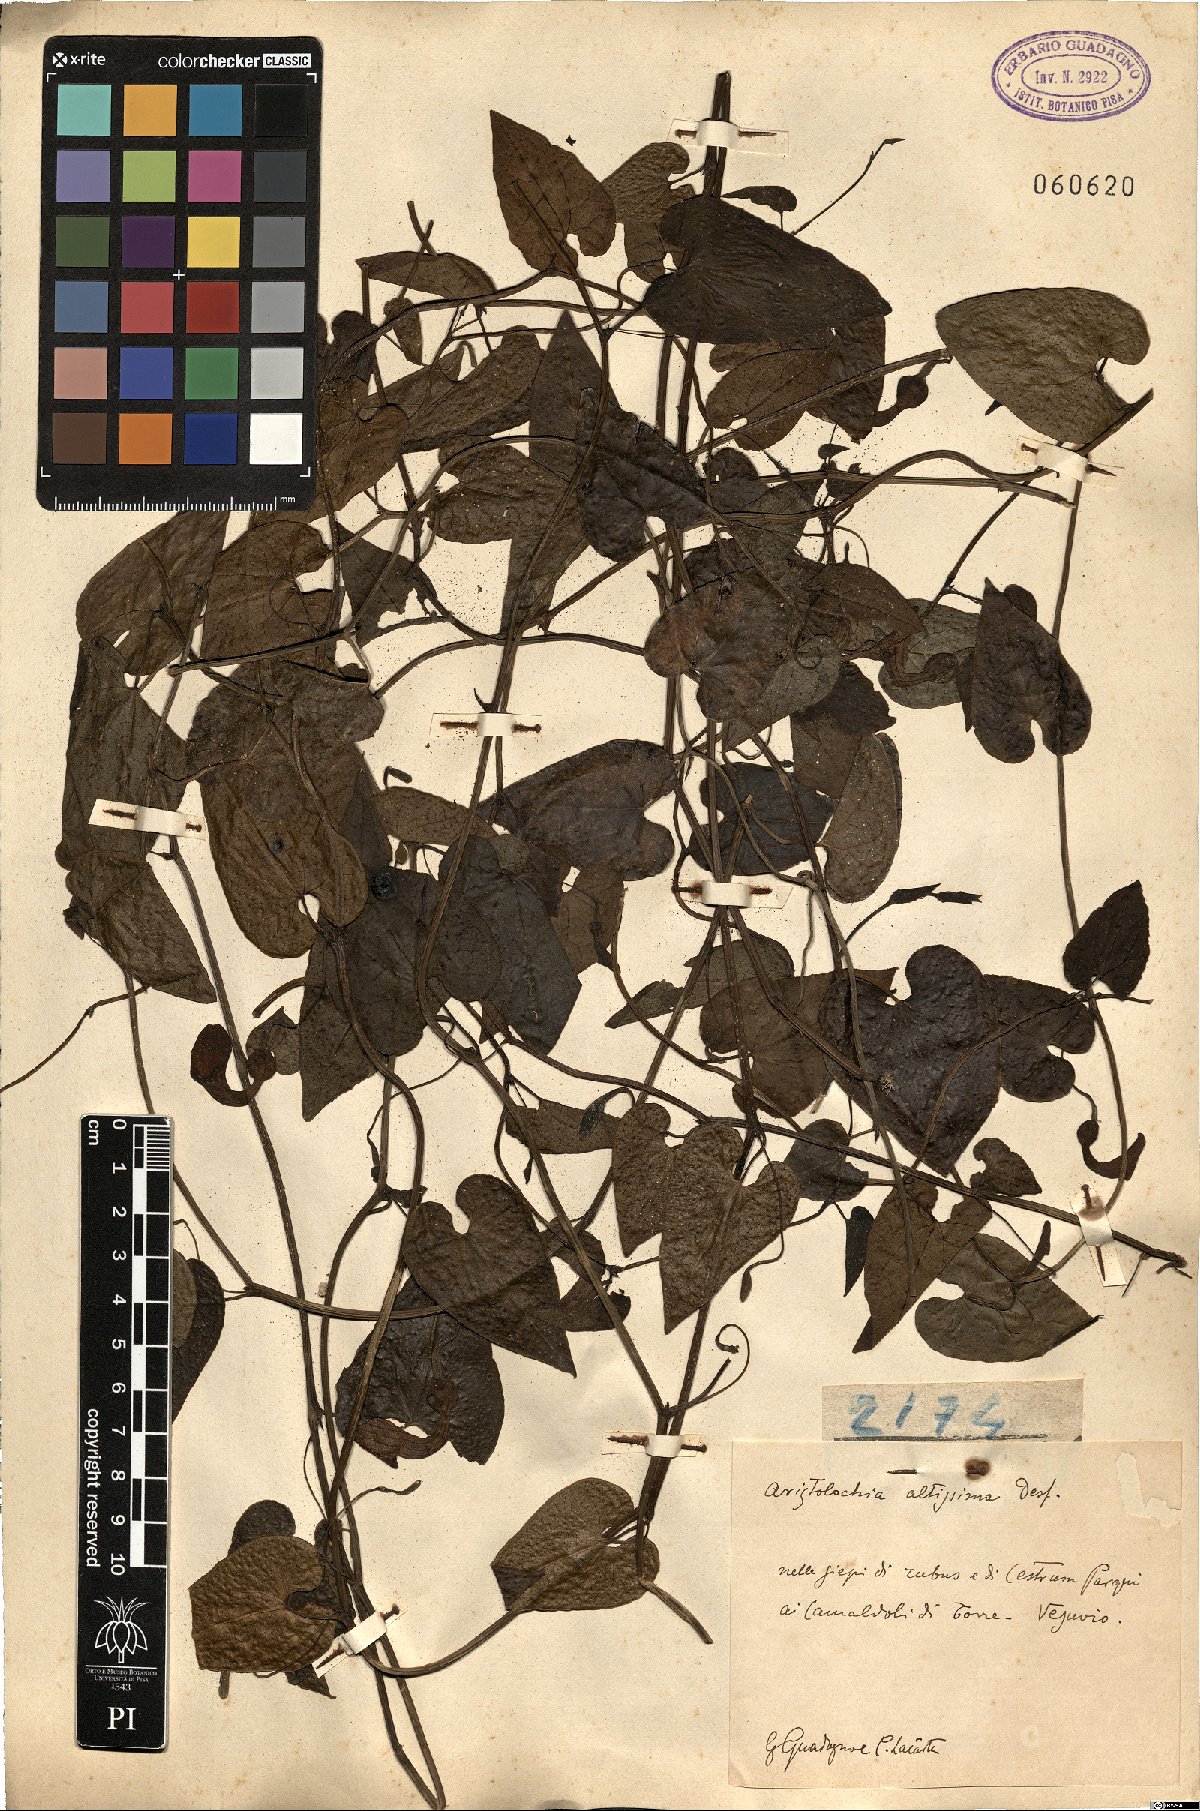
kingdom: Plantae
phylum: Tracheophyta
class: Magnoliopsida
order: Piperales
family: Aristolochiaceae
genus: Aristolochia
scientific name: Aristolochia sempervirens
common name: Long birthwort
